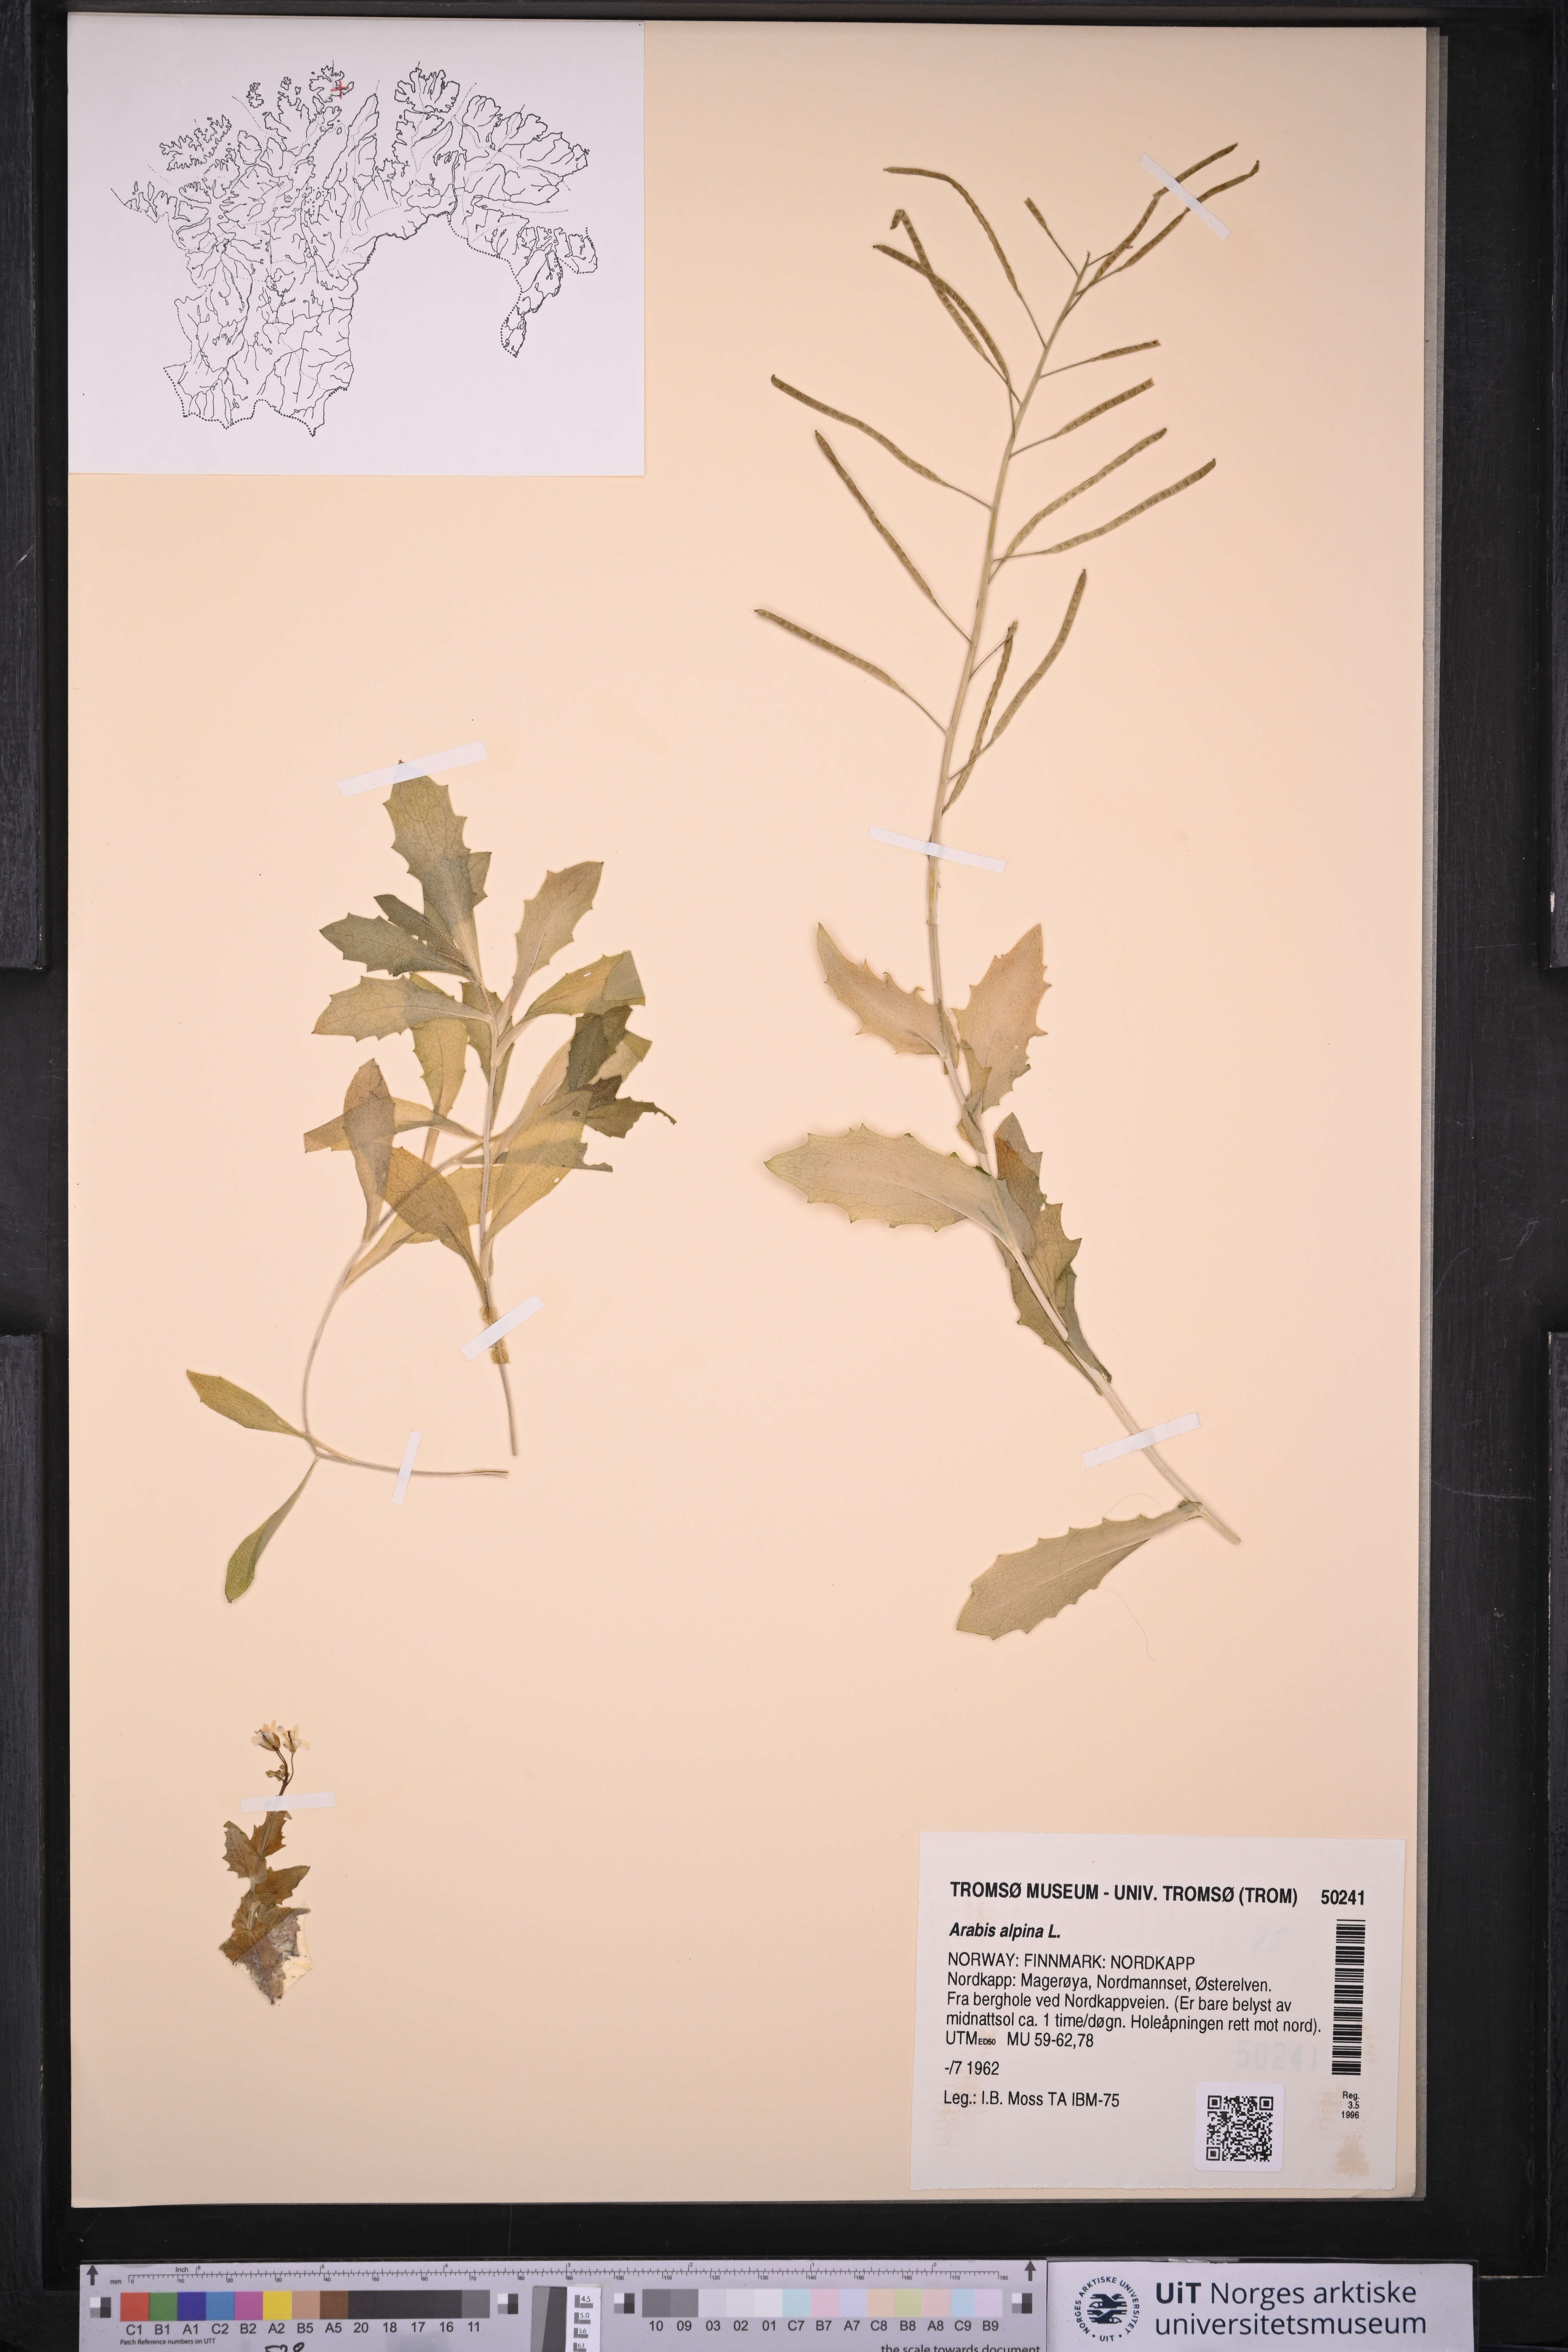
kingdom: Plantae
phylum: Tracheophyta
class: Magnoliopsida
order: Brassicales
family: Brassicaceae
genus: Arabis
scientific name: Arabis alpina
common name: Alpine rock-cress
